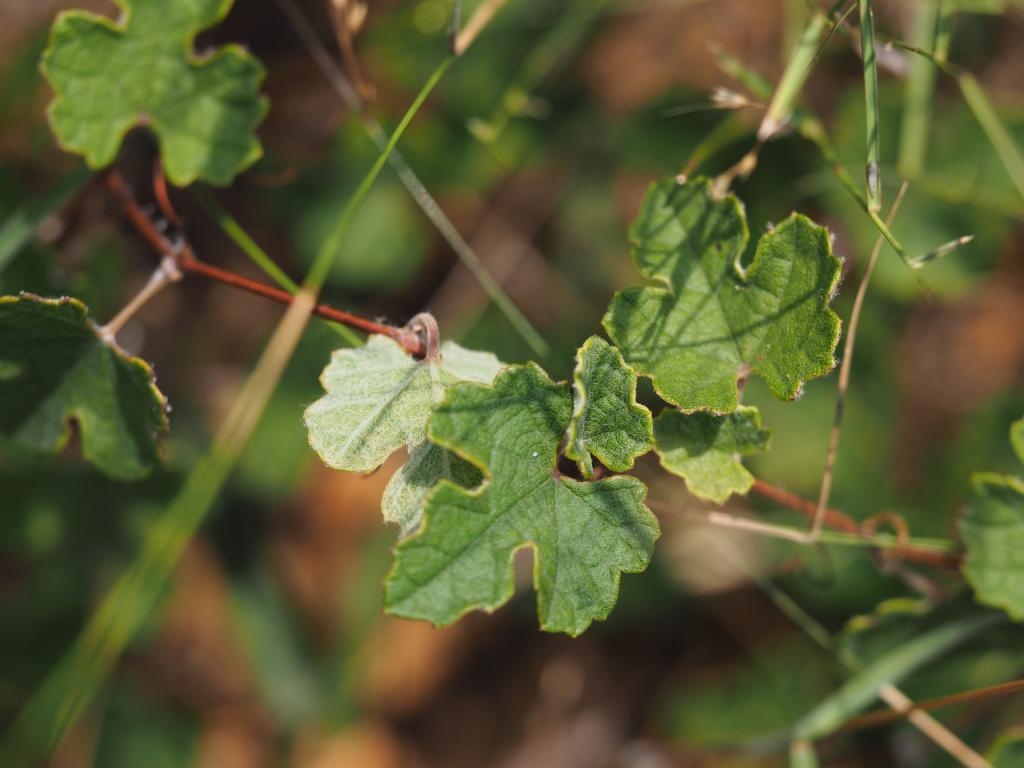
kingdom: Plantae
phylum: Tracheophyta
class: Magnoliopsida
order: Vitales
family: Vitaceae
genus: Vitis
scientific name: Vitis sinocinerea
